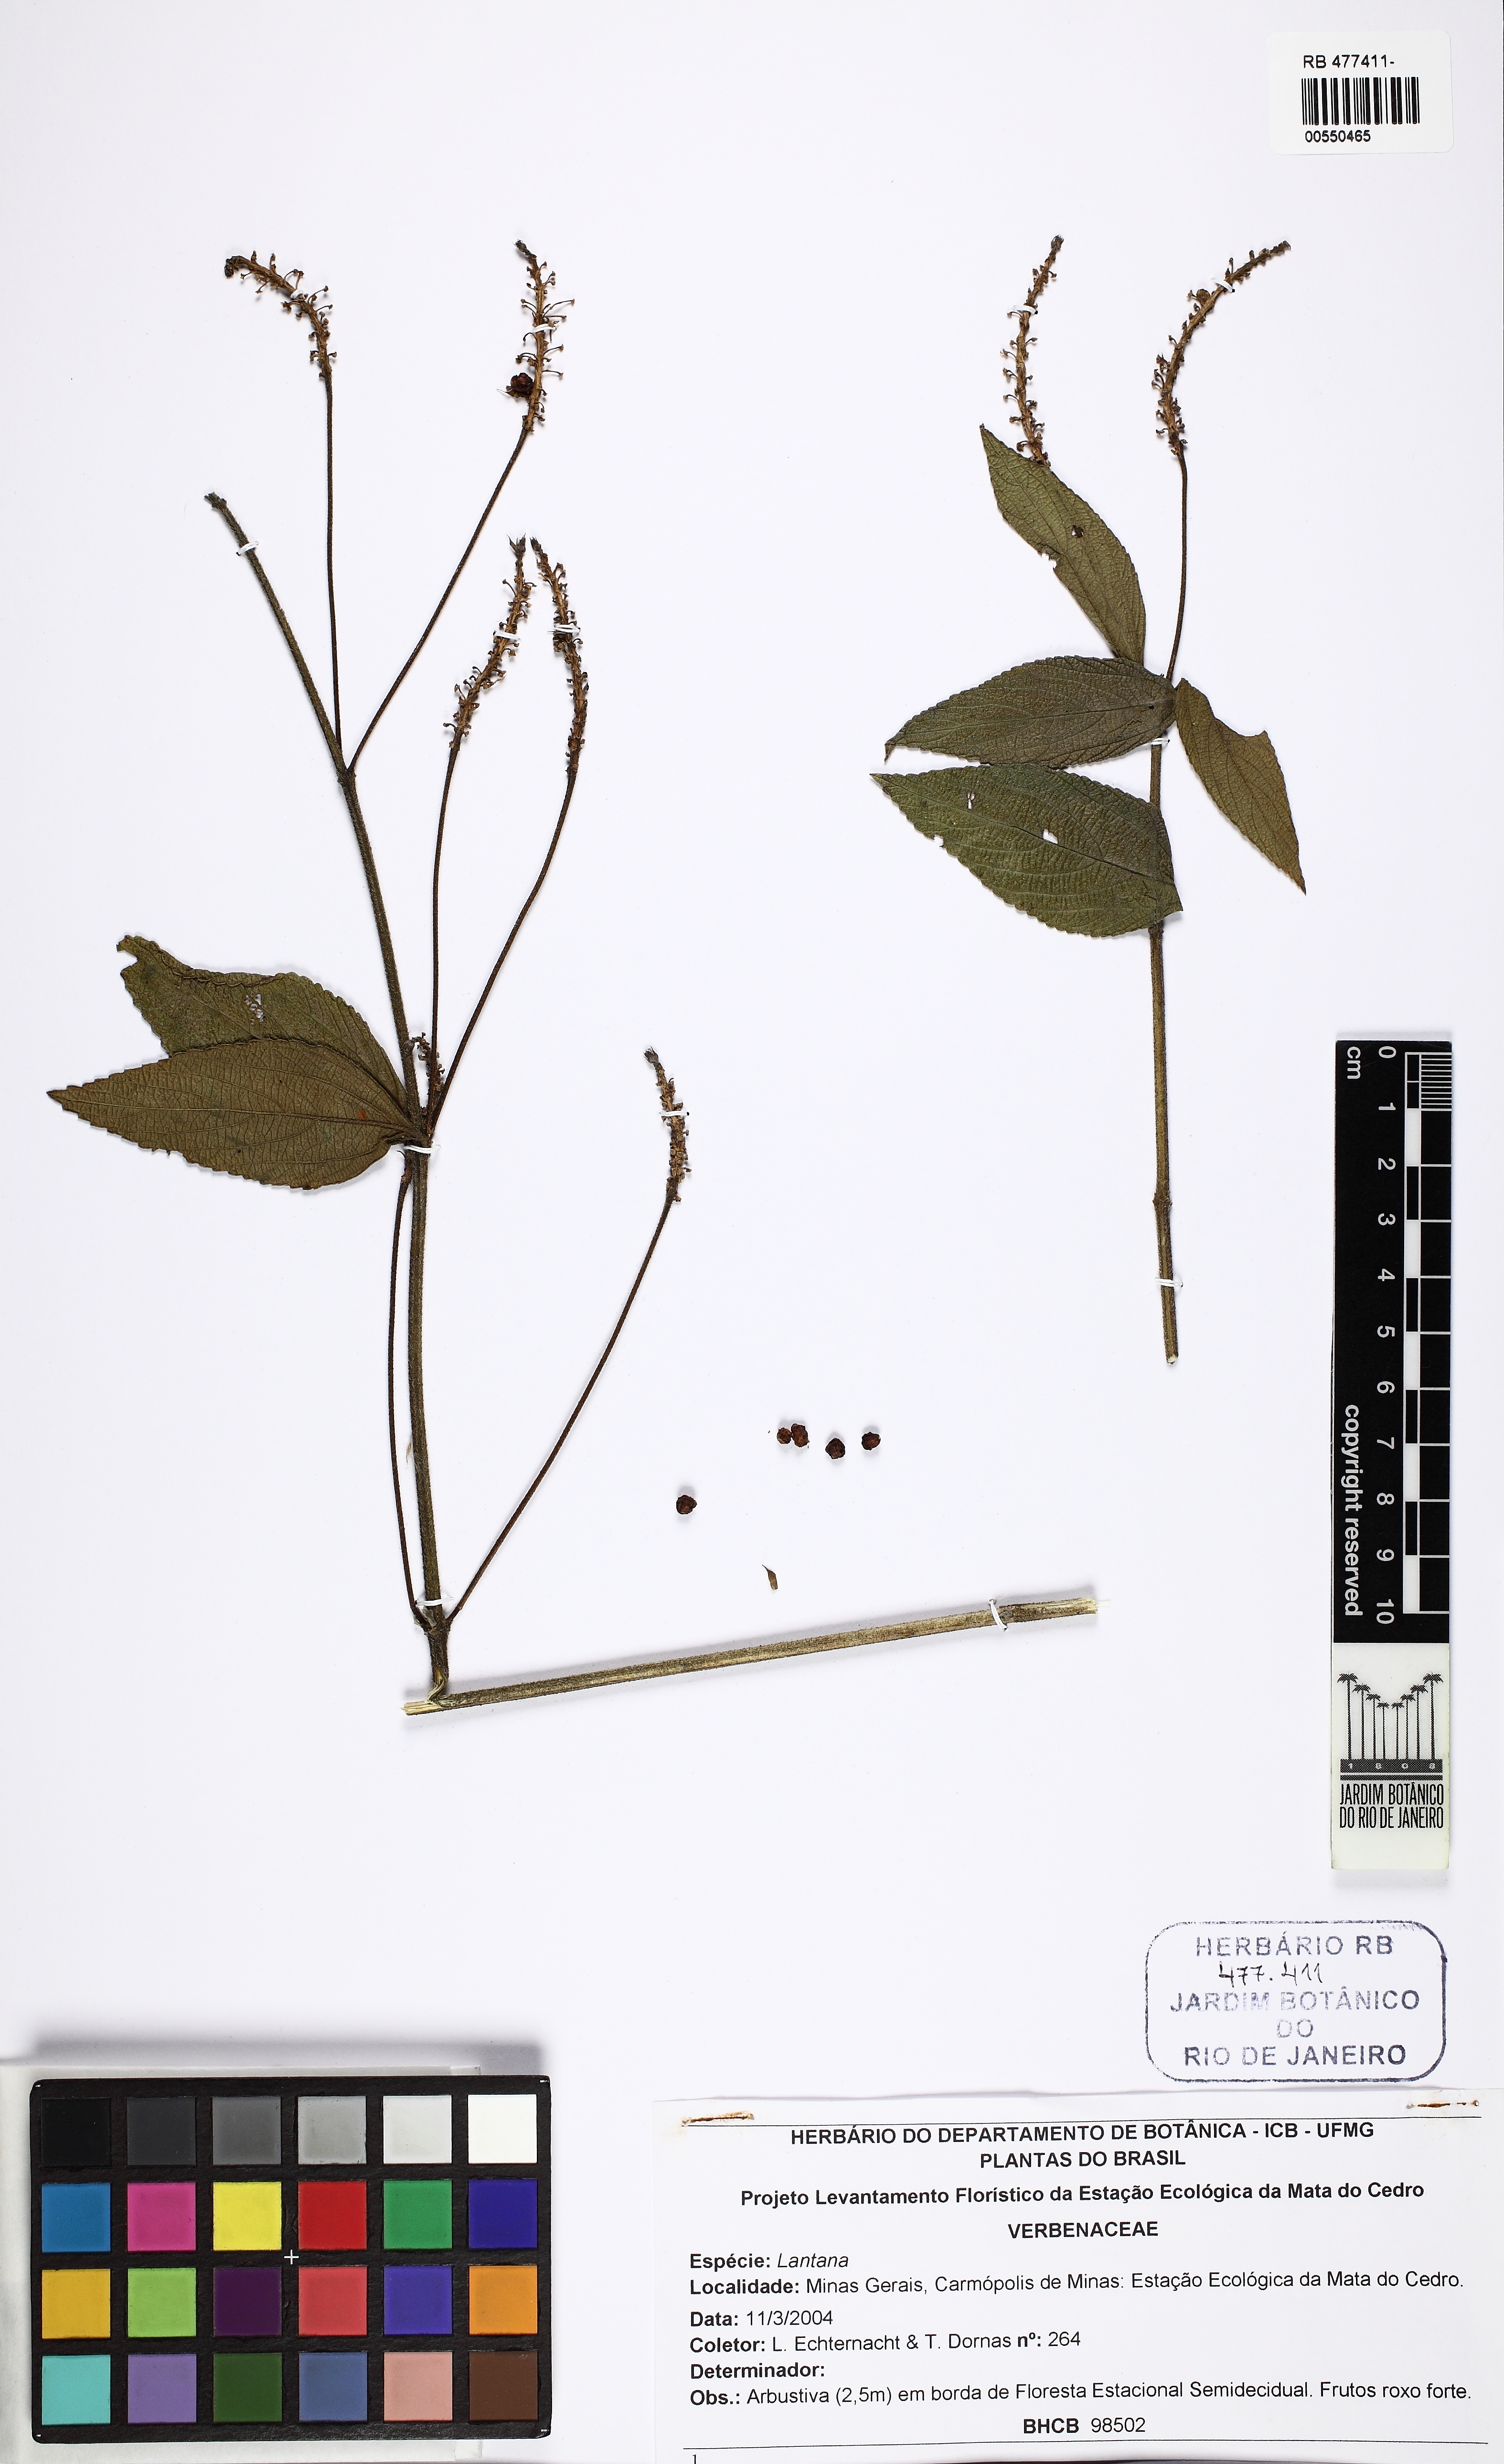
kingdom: Plantae
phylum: Tracheophyta
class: Magnoliopsida
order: Lamiales
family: Verbenaceae
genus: Lantana
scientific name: Lantana
